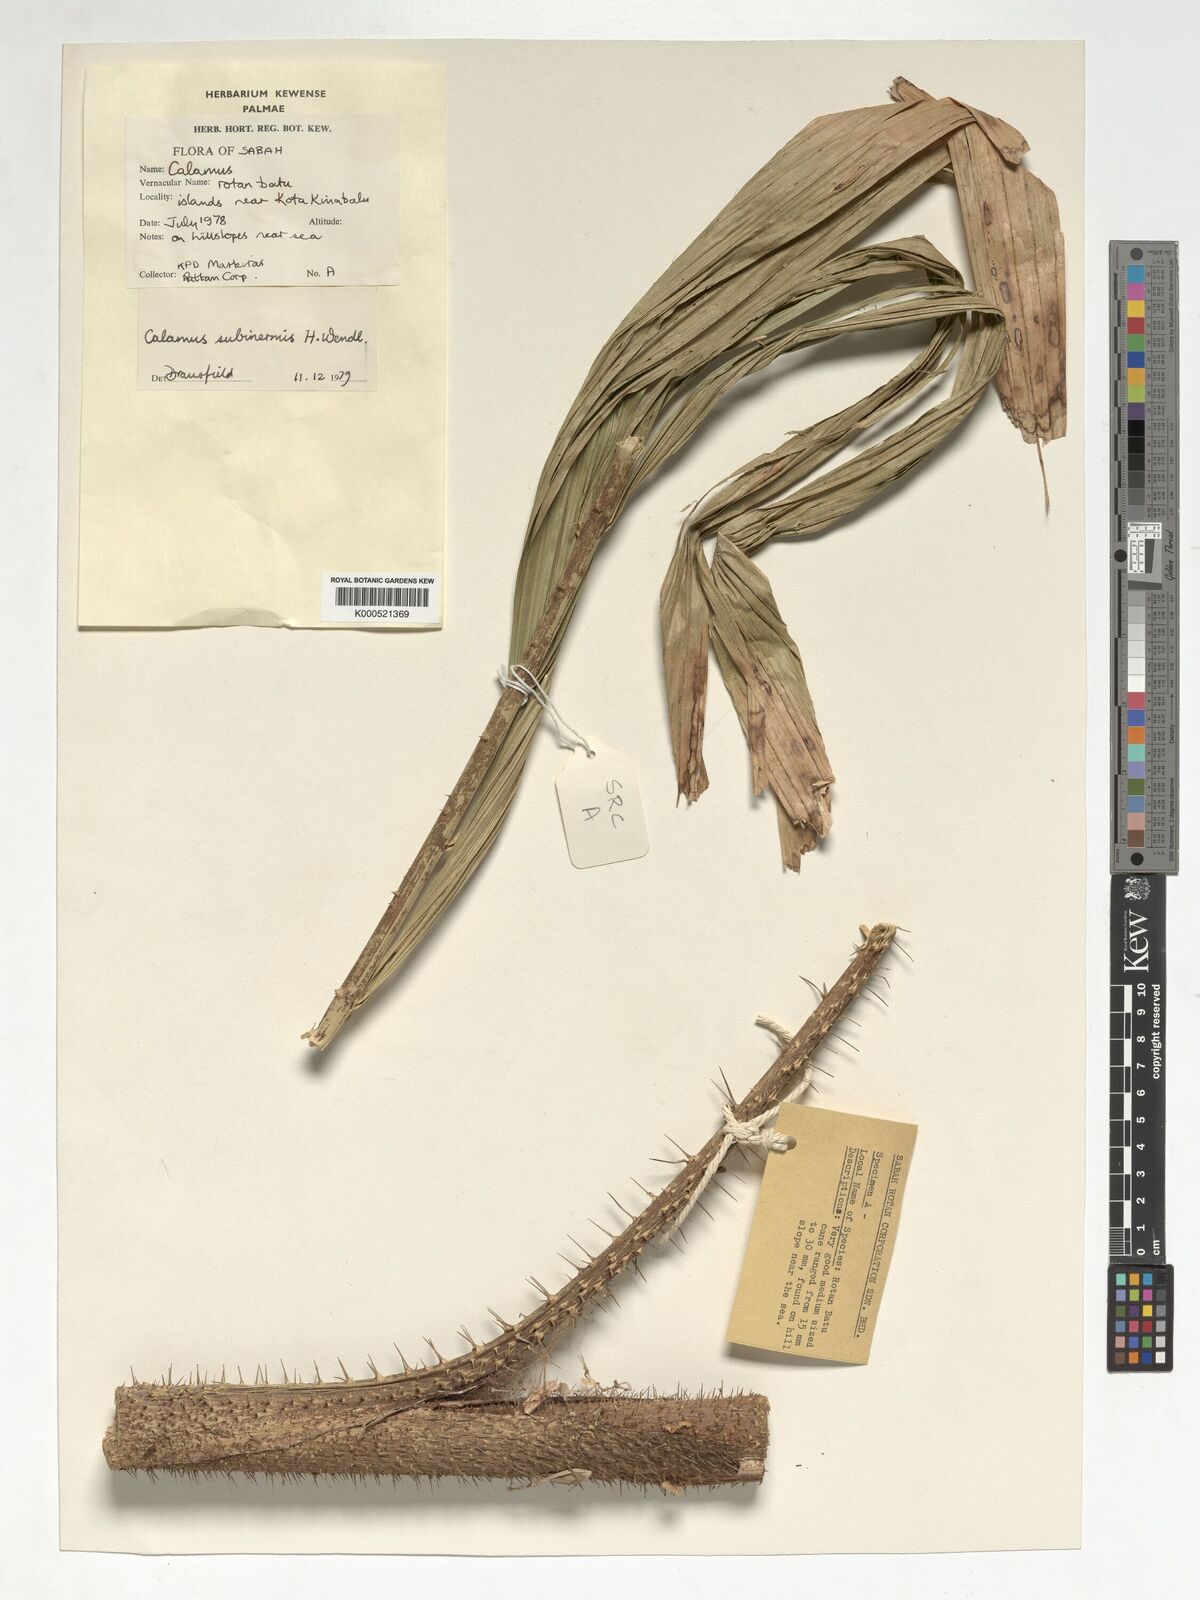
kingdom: Plantae
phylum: Tracheophyta
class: Liliopsida
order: Arecales
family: Arecaceae
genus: Calamus
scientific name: Calamus moseleyanus
